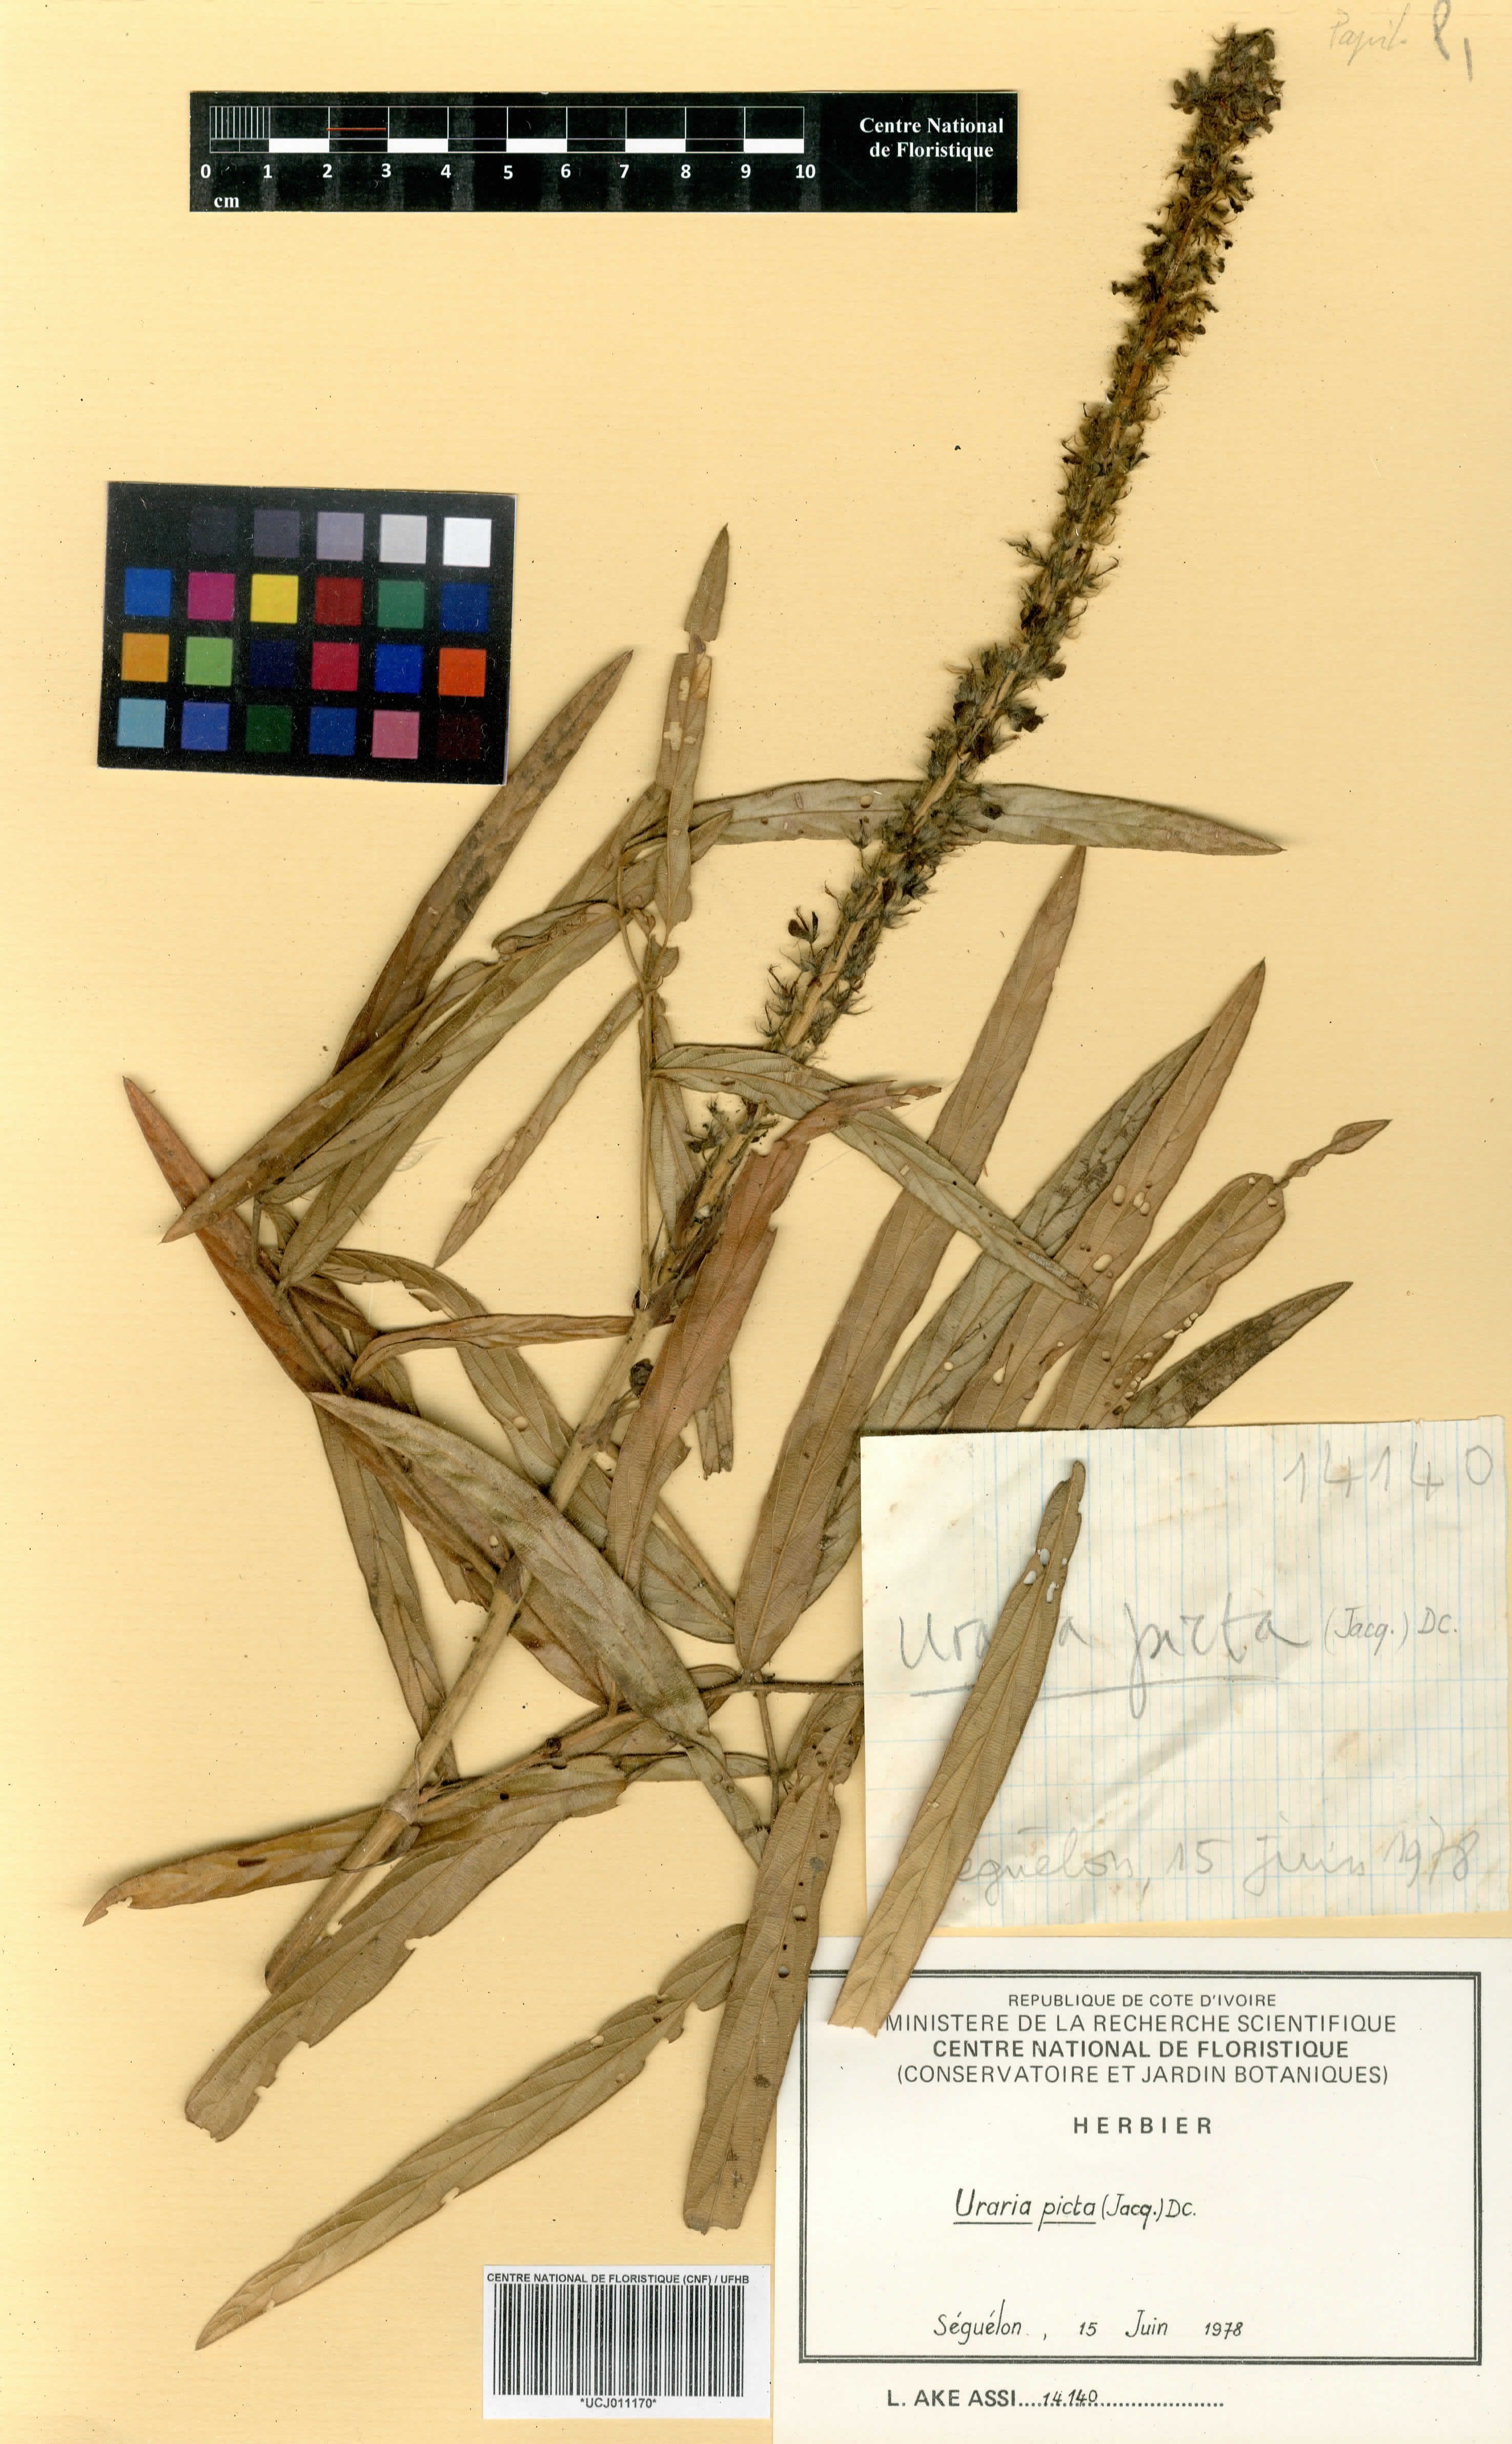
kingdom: Plantae
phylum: Tracheophyta
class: Magnoliopsida
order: Fabales
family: Fabaceae
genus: Uraria
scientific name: Uraria picta
